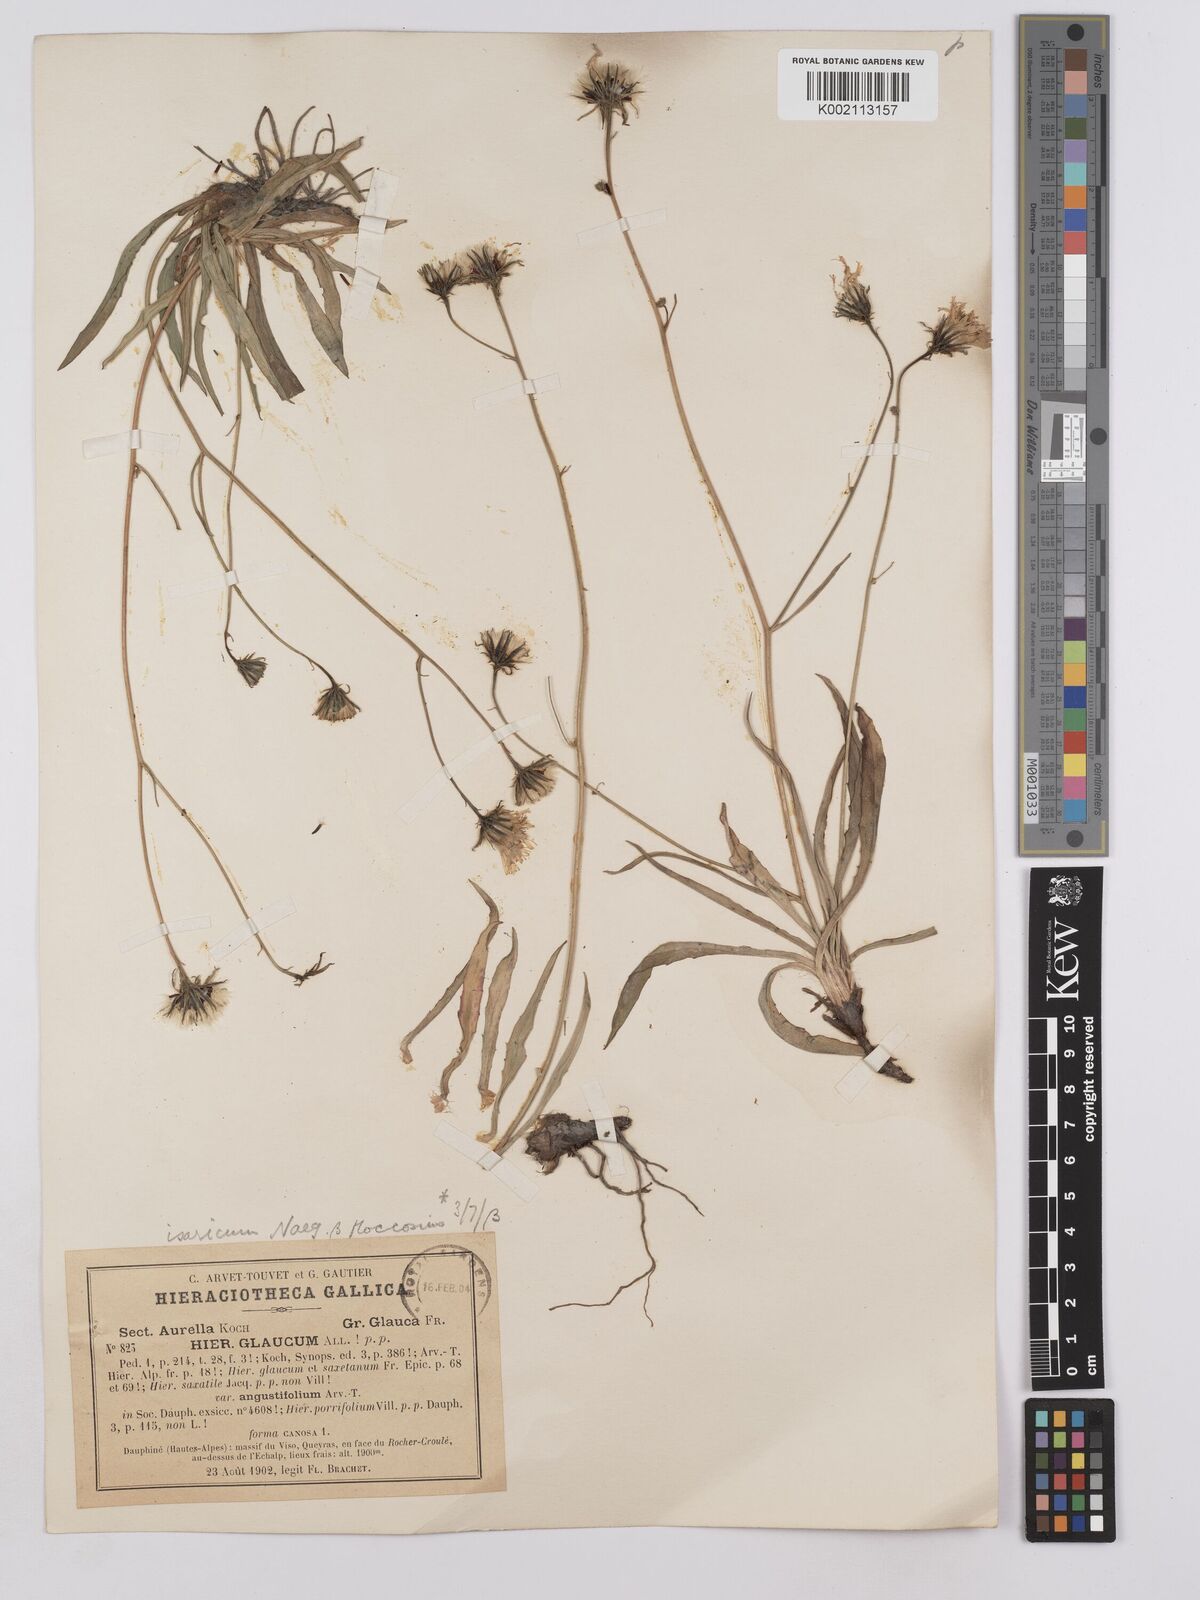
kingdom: Plantae
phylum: Tracheophyta
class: Magnoliopsida
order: Asterales
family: Asteraceae
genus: Hieracium
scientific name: Hieracium glaucum
